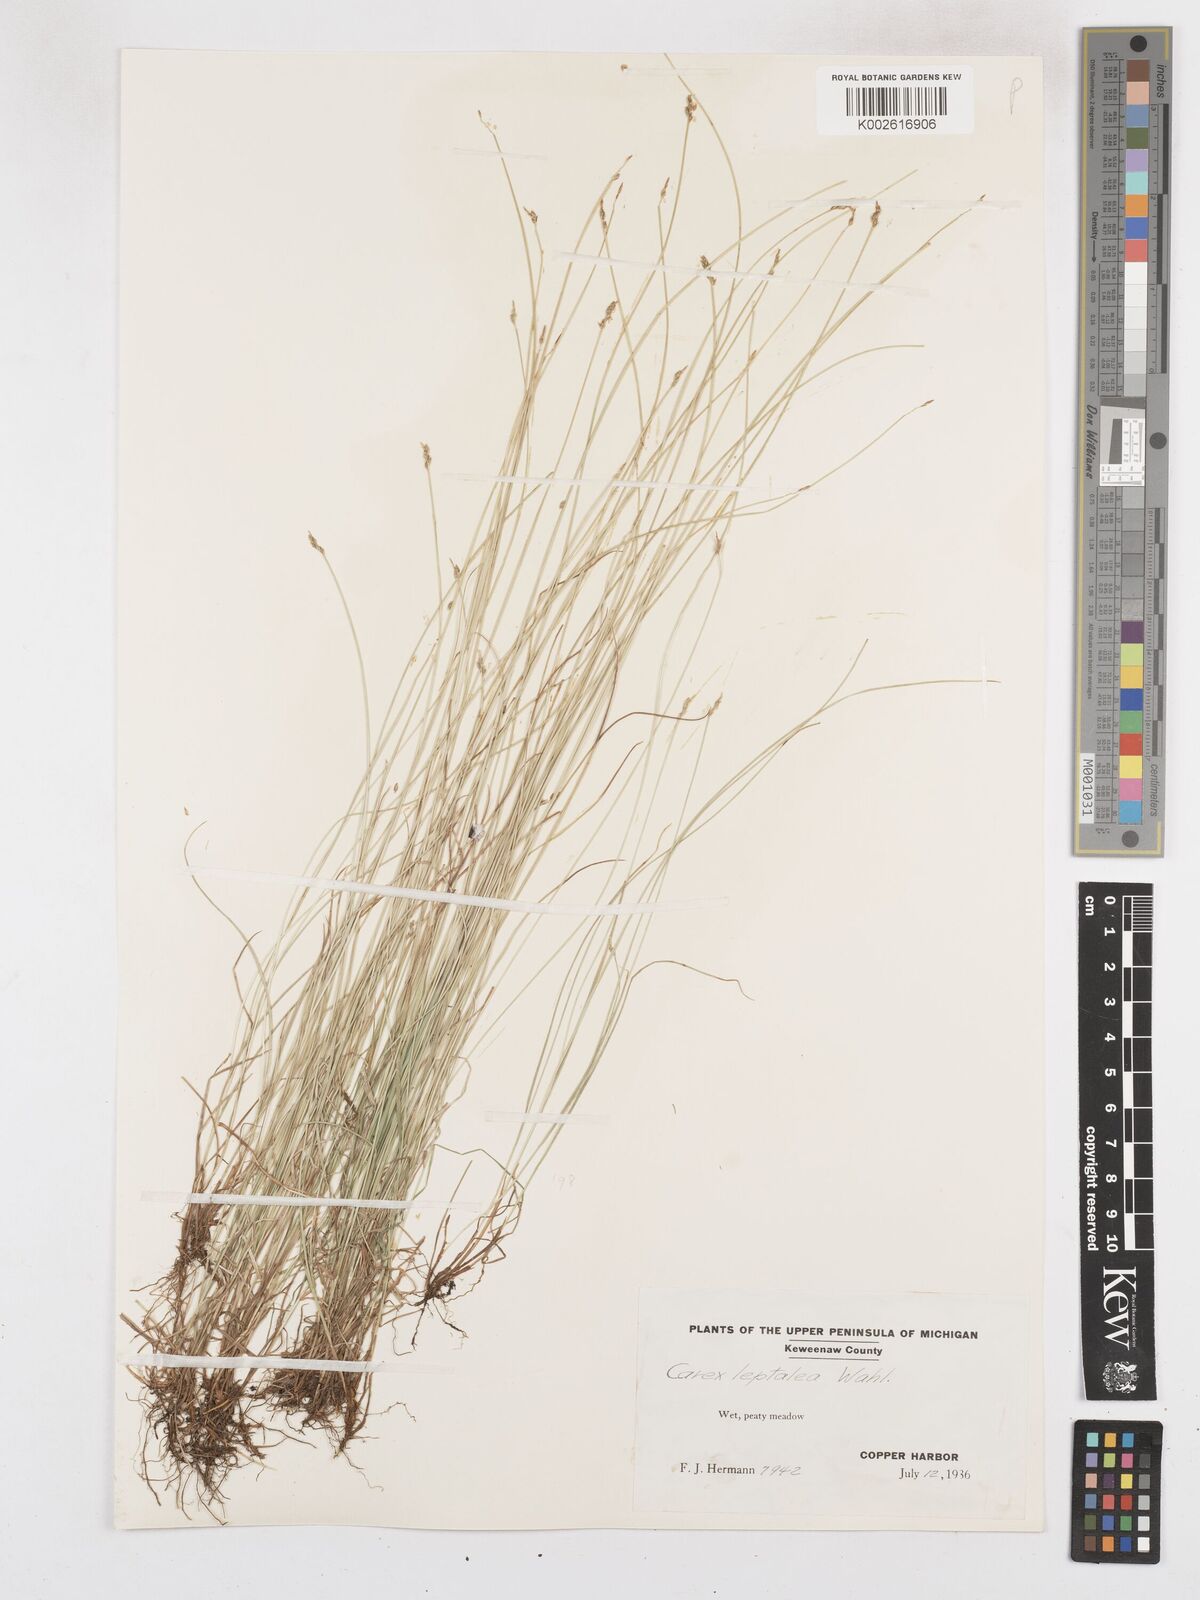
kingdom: Plantae
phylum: Tracheophyta
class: Liliopsida
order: Poales
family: Cyperaceae
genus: Carex
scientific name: Carex leptalea
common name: Bristly-stalked sedge
